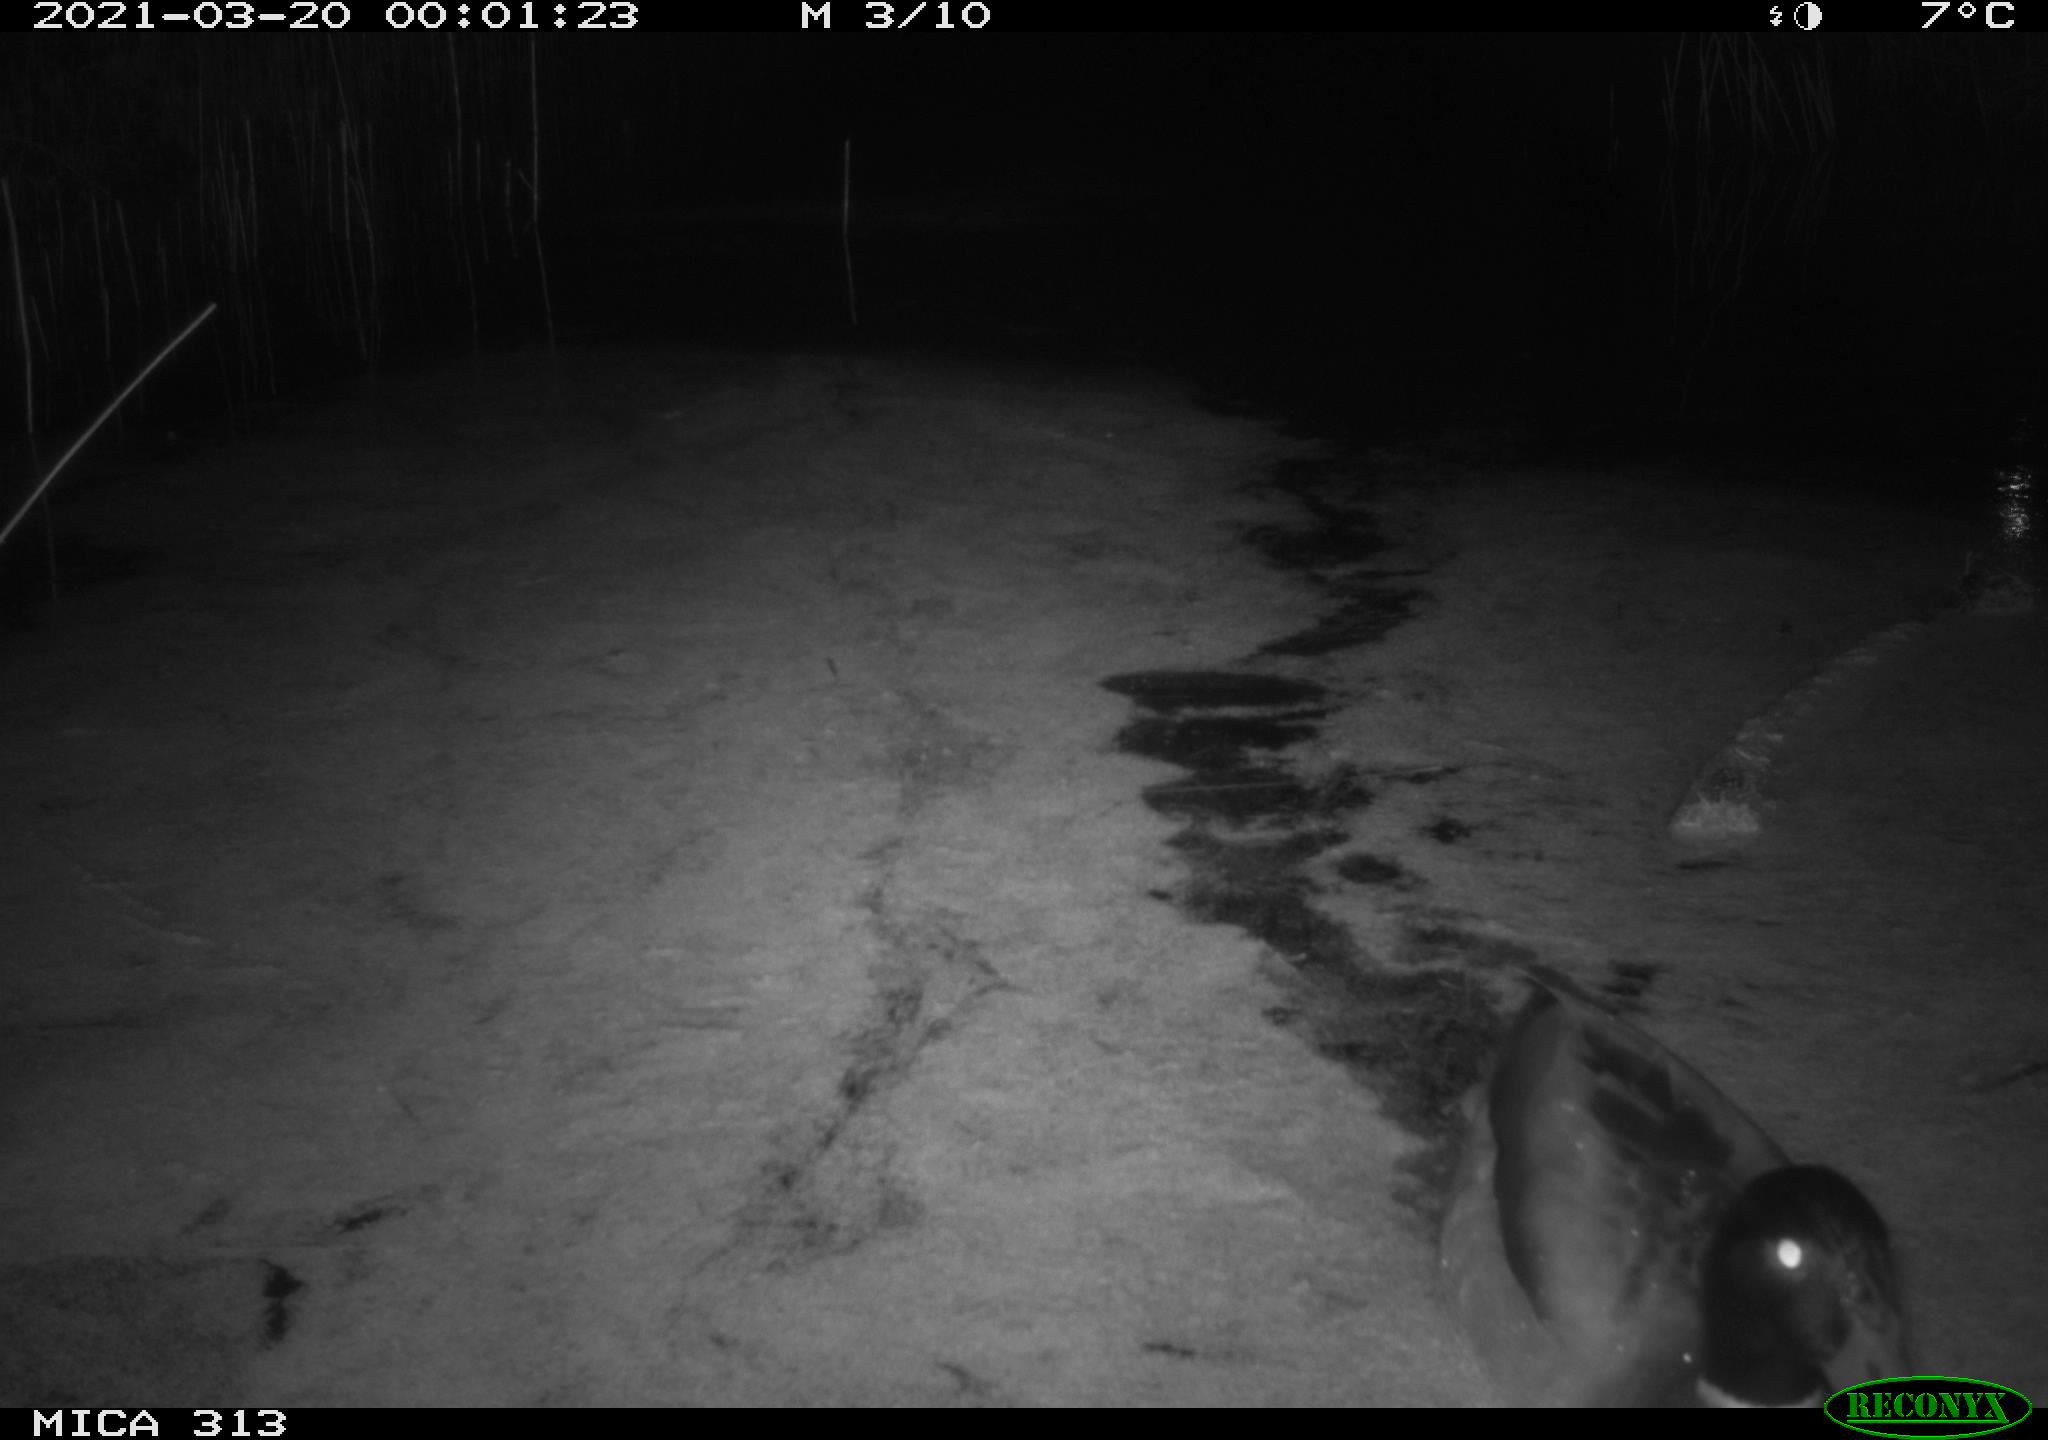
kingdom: Animalia
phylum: Chordata
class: Aves
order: Anseriformes
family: Anatidae
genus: Anas
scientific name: Anas platyrhynchos
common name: Mallard
